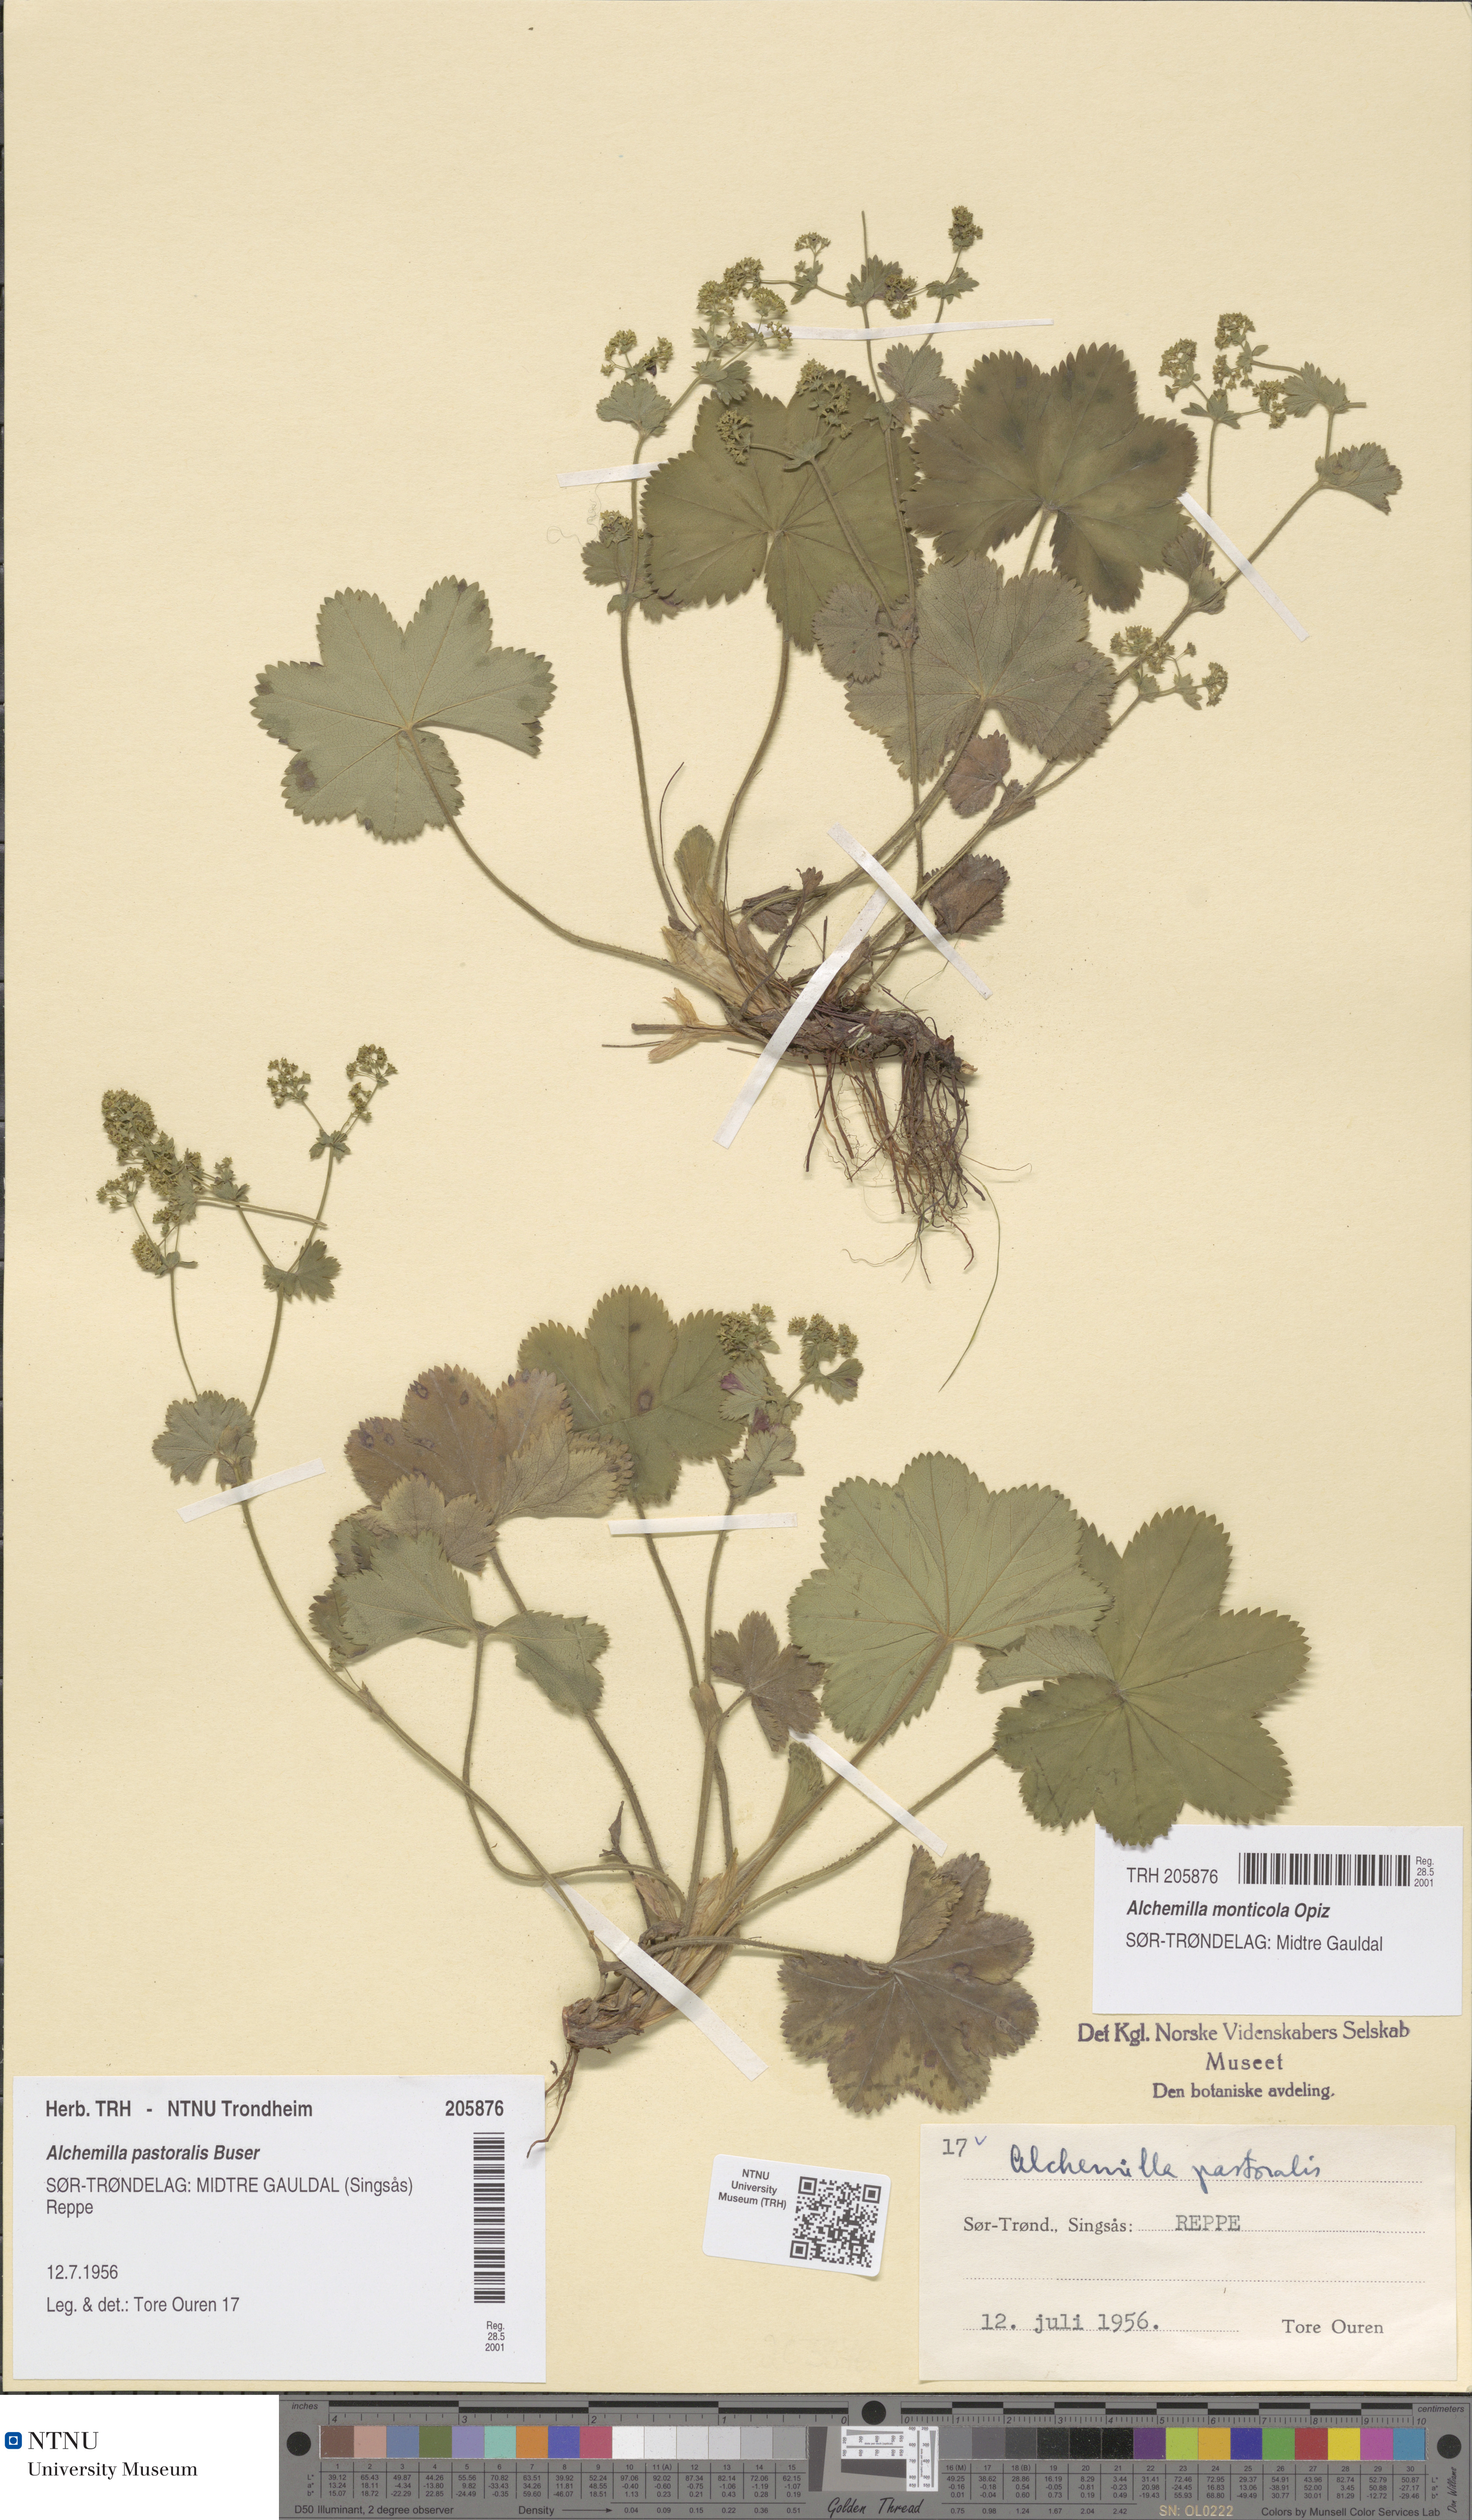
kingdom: Plantae
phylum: Tracheophyta
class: Magnoliopsida
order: Rosales
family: Rosaceae
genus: Alchemilla
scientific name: Alchemilla monticola
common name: Hairy lady's mantle
